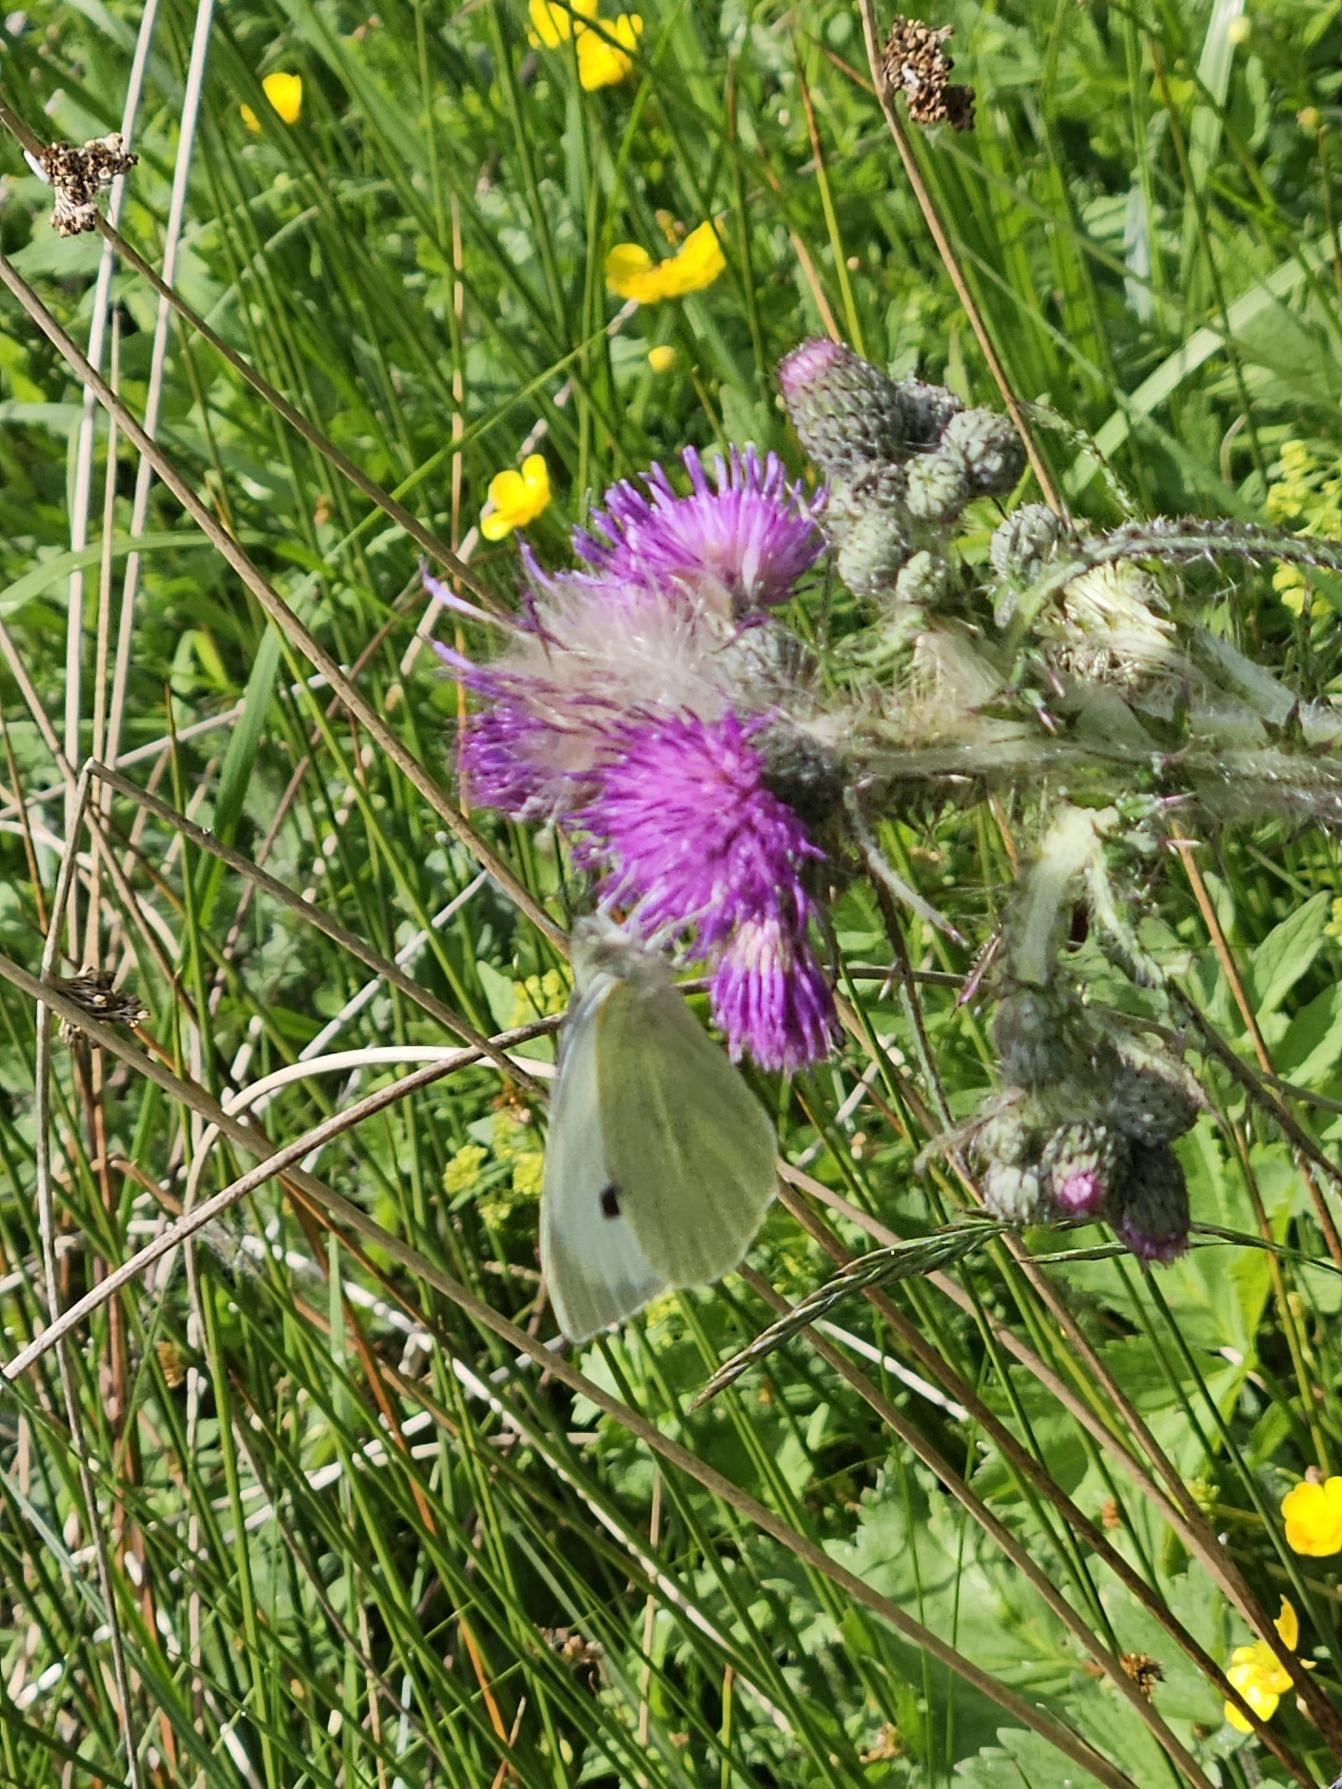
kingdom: Animalia
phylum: Arthropoda
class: Insecta
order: Lepidoptera
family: Pieridae
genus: Pieris
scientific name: Pieris brassicae
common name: Stor kålsommerfugl
